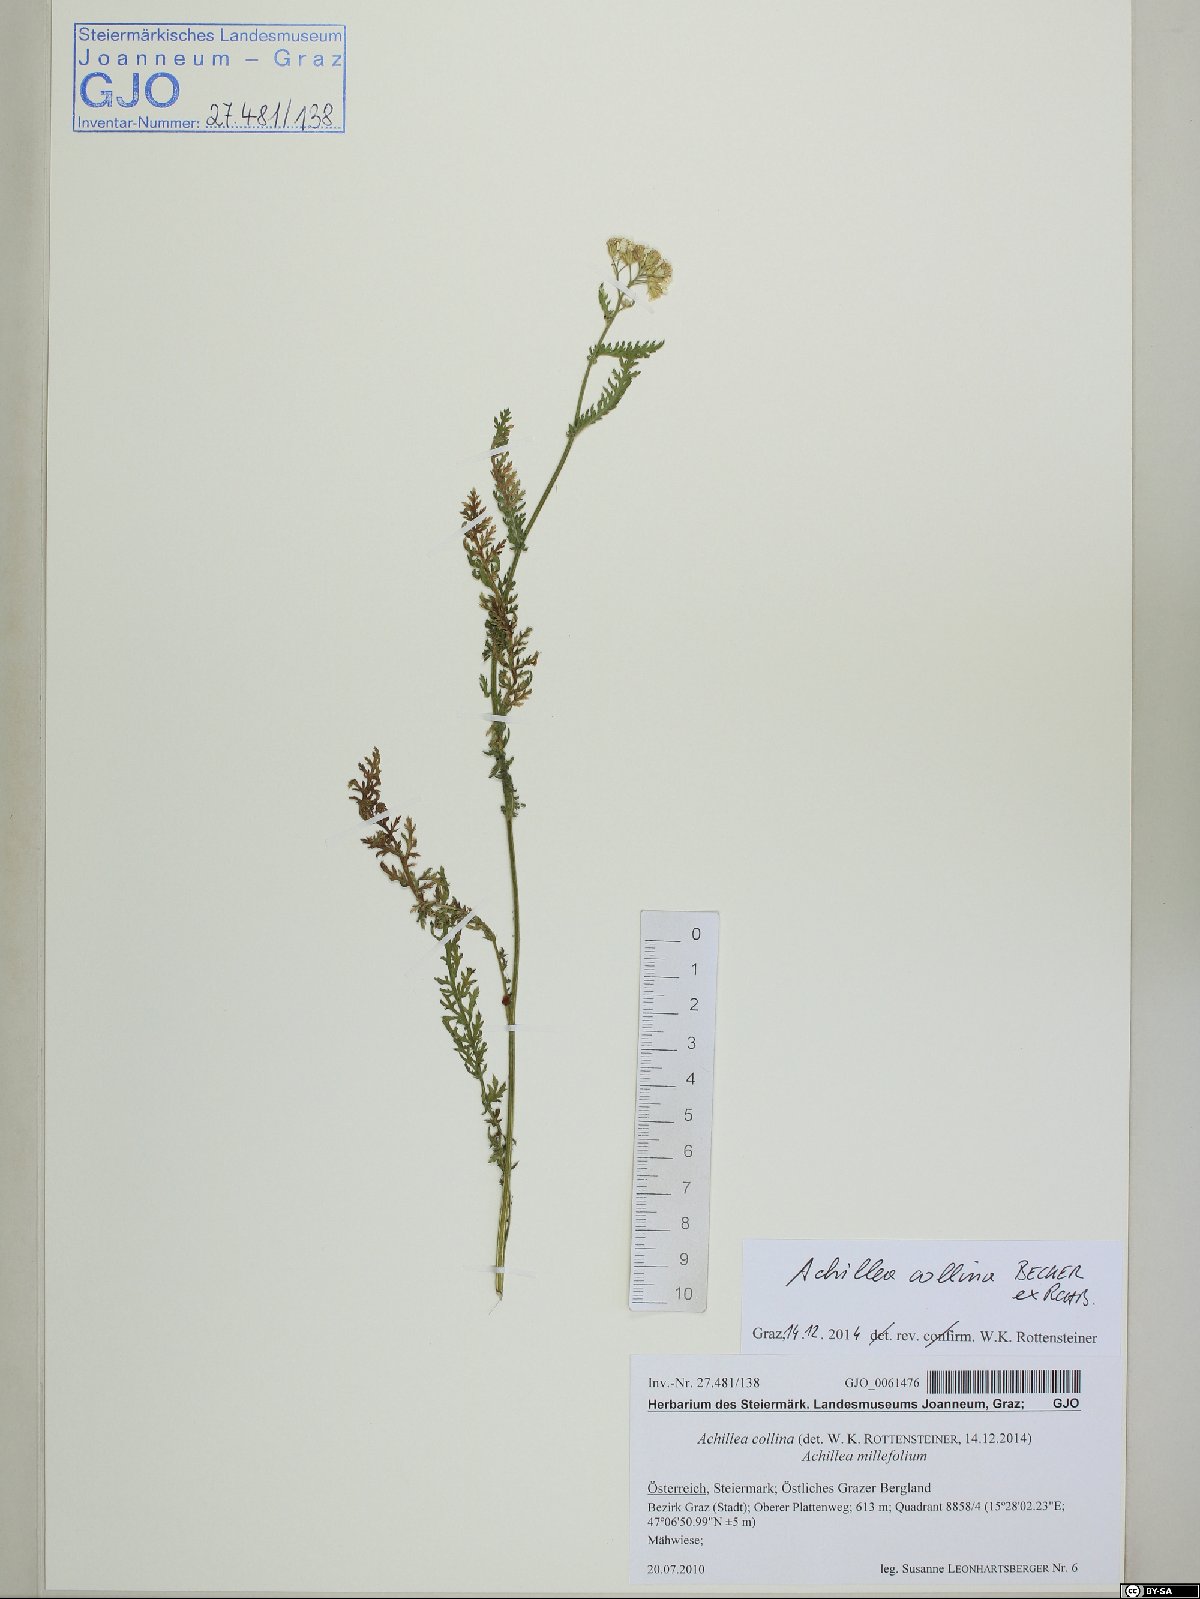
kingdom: Plantae
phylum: Tracheophyta
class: Magnoliopsida
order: Asterales
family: Asteraceae
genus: Achillea
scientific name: Achillea collina
